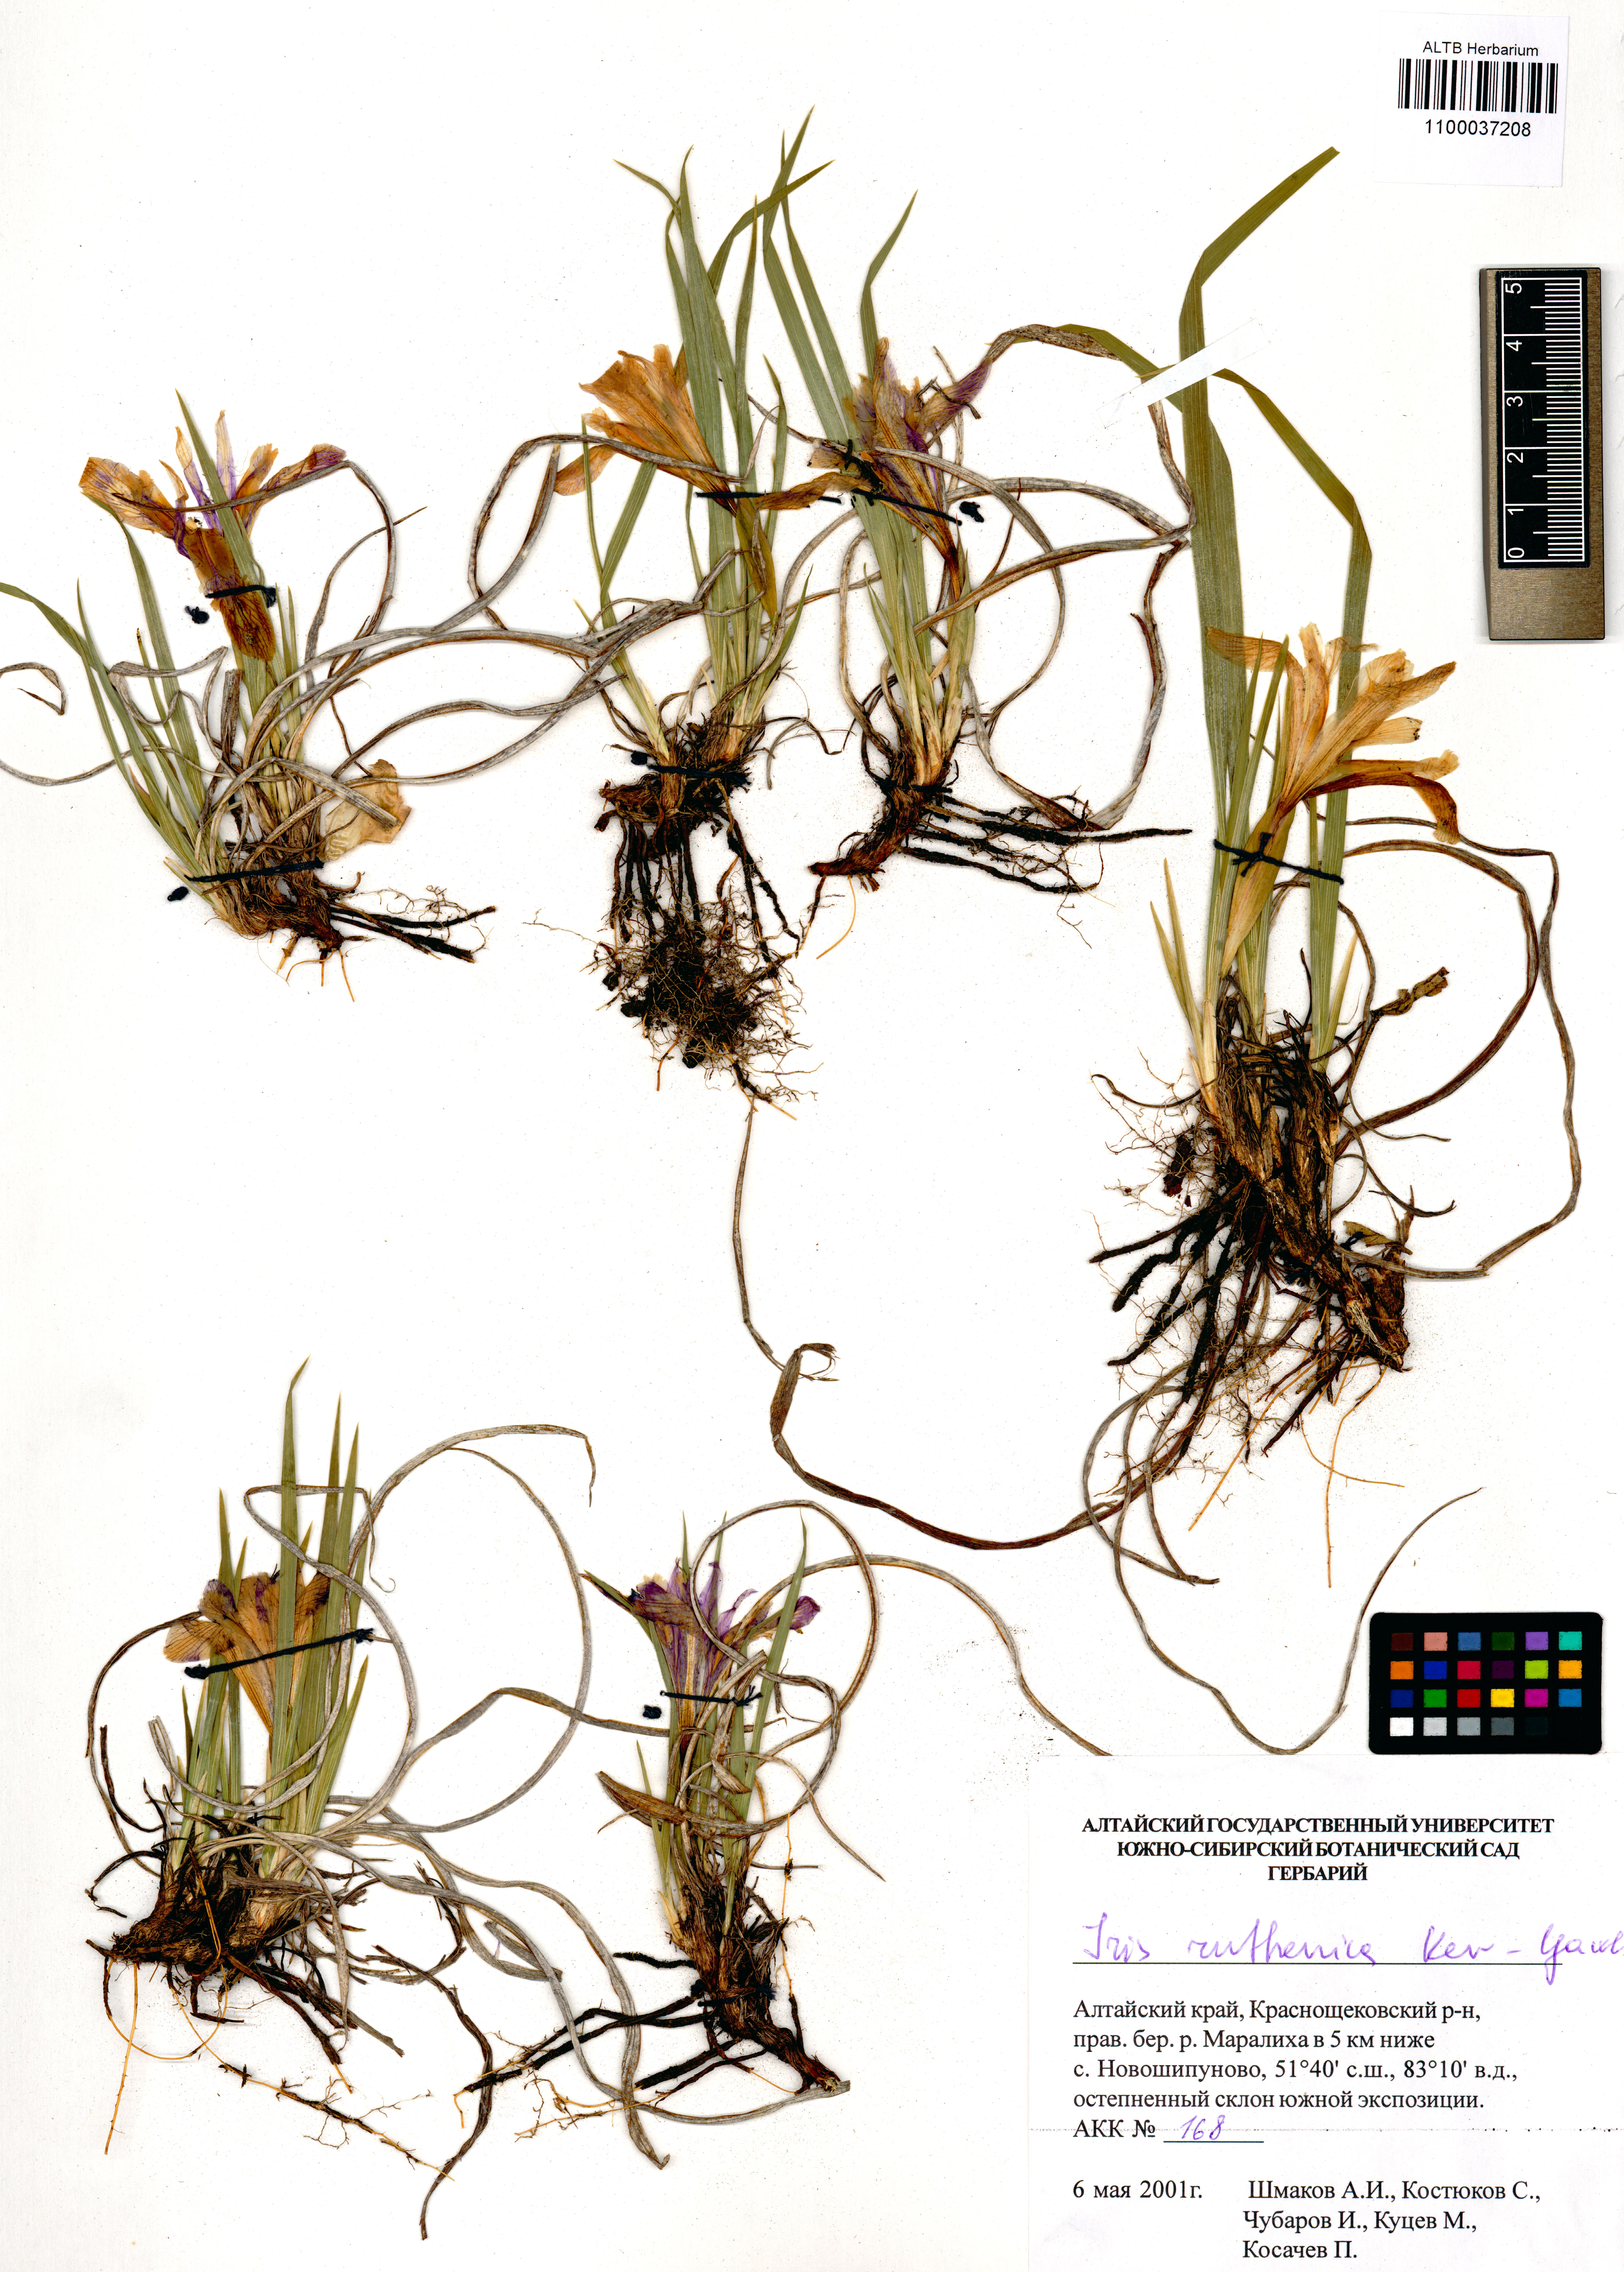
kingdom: Plantae
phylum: Tracheophyta
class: Liliopsida
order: Asparagales
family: Iridaceae
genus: Iris
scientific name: Iris ruthenica
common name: Purple-bract iris
